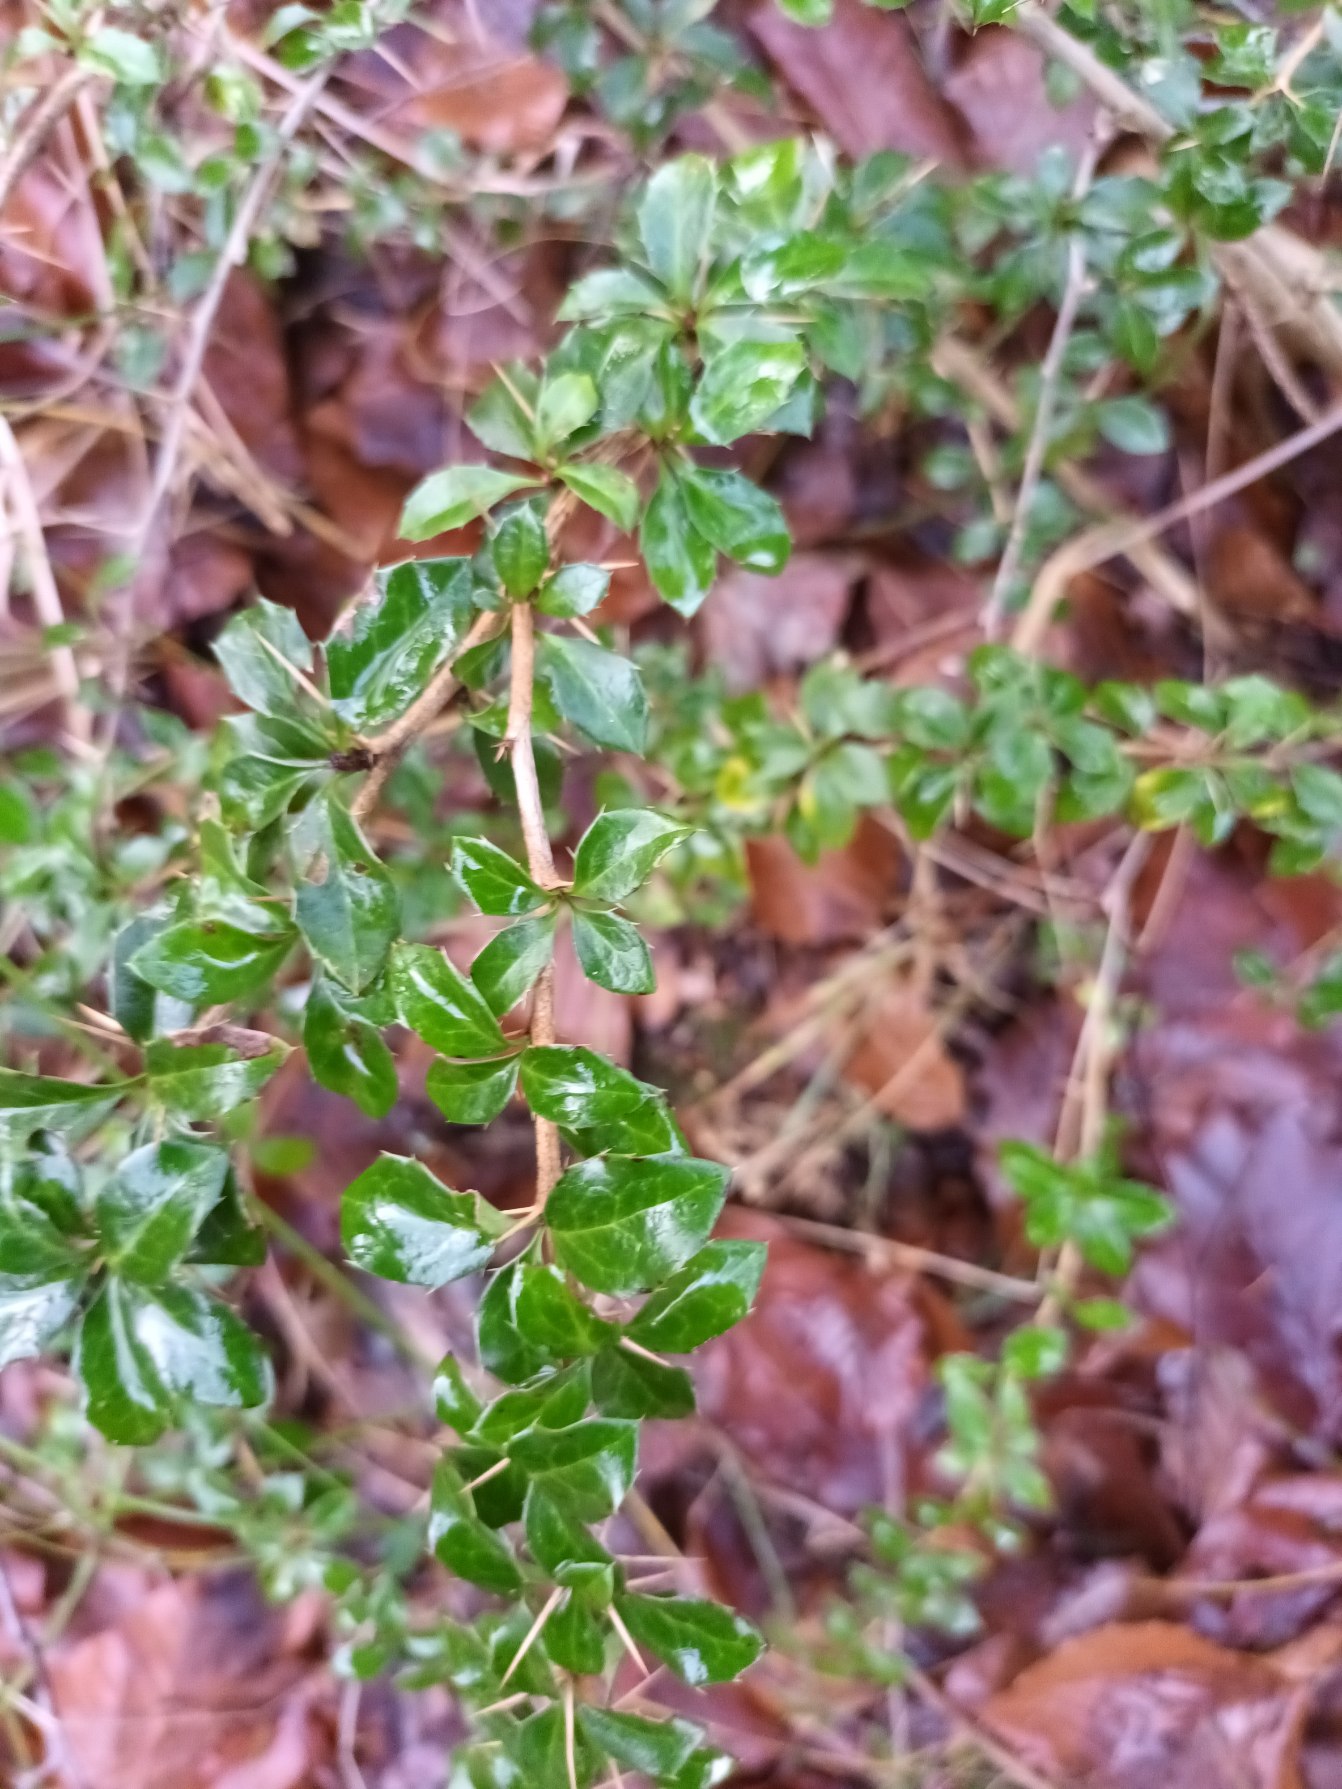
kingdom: Plantae
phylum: Tracheophyta
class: Magnoliopsida
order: Ranunculales
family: Berberidaceae
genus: Berberis
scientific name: Berberis verruculosa
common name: Finvortet surtorn
